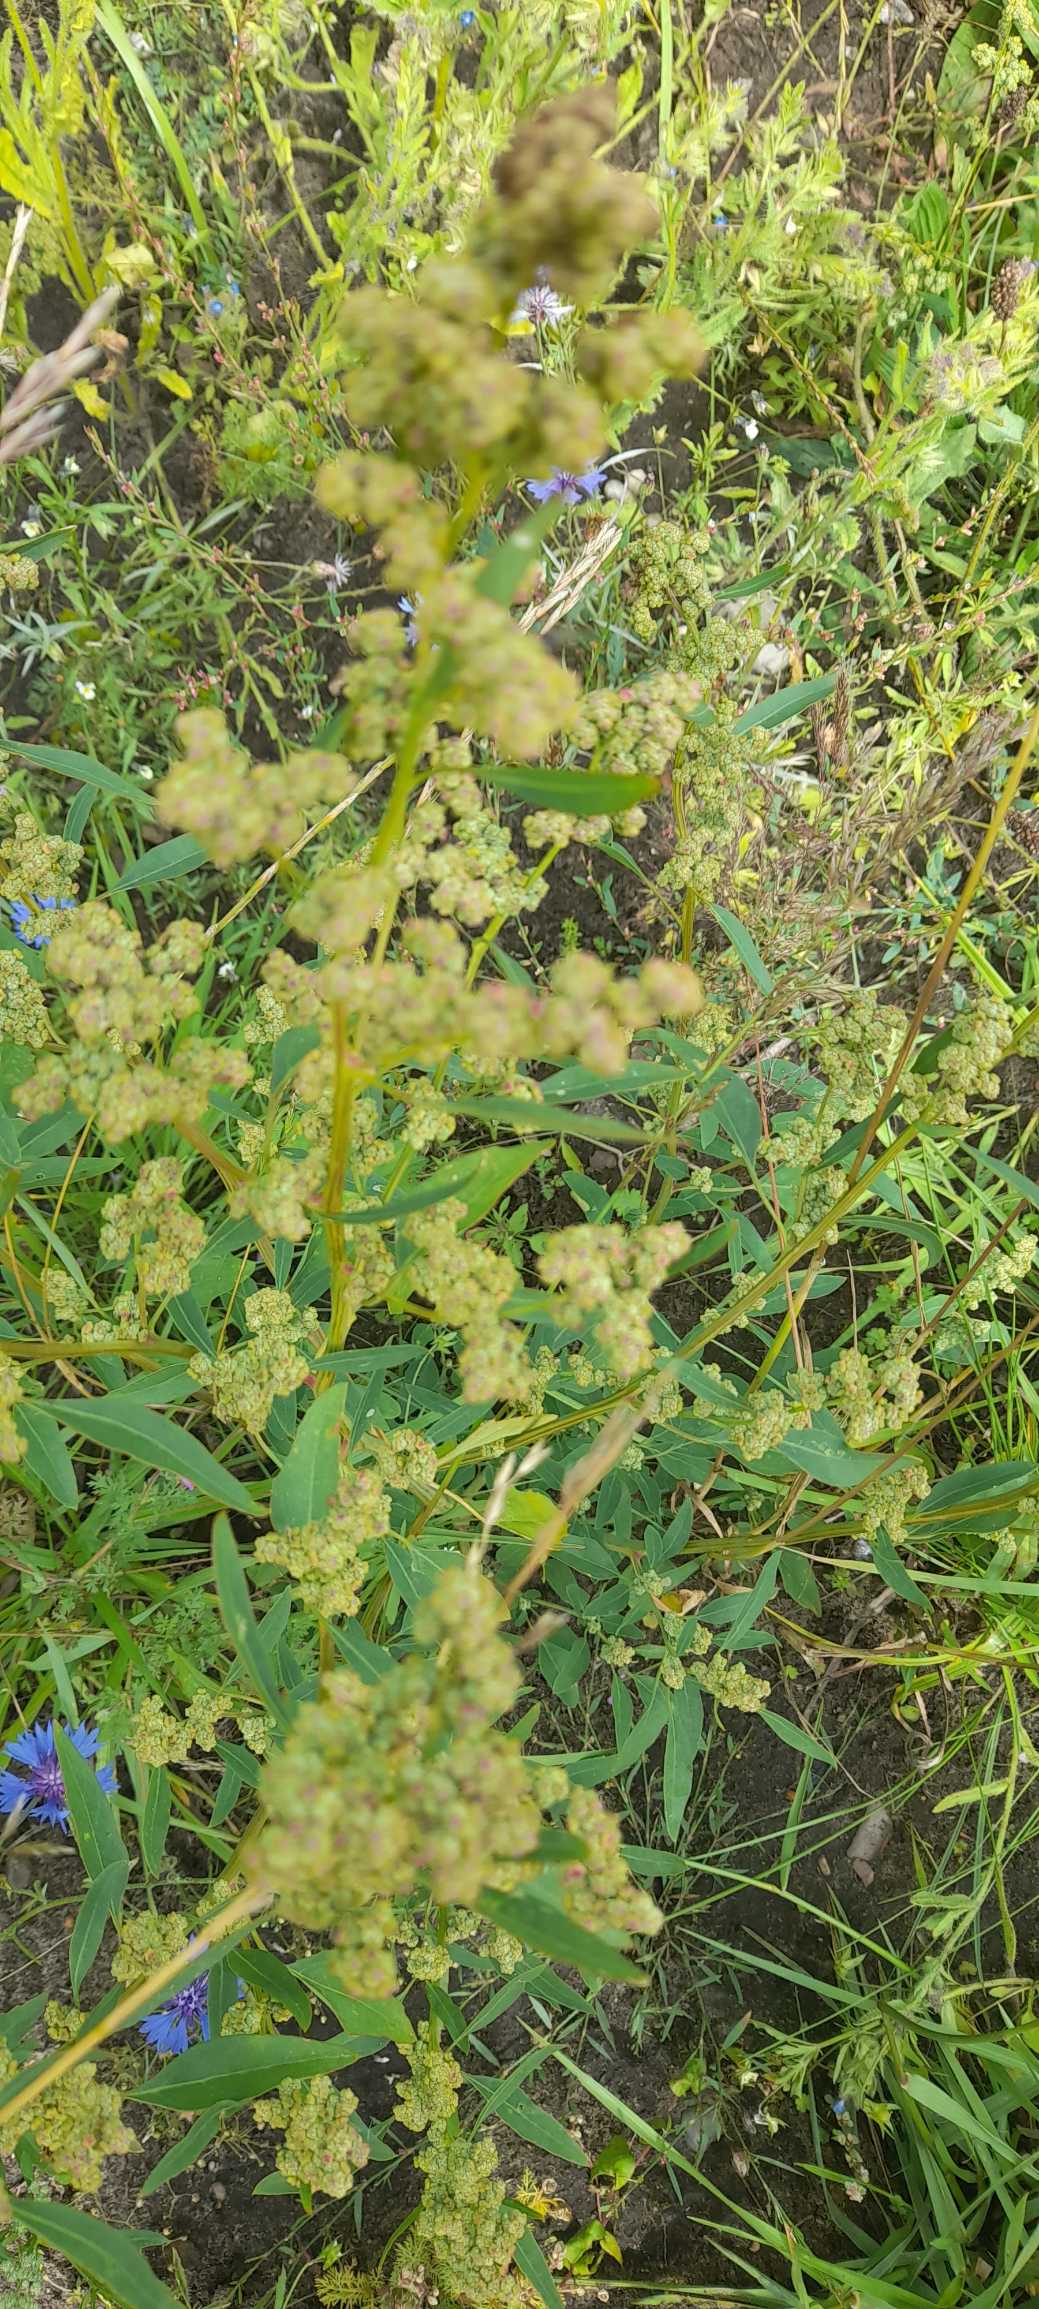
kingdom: Plantae
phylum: Tracheophyta
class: Magnoliopsida
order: Caryophyllales
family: Amaranthaceae
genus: Chenopodium
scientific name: Chenopodium pratericola
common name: Finbladet gåsefod
